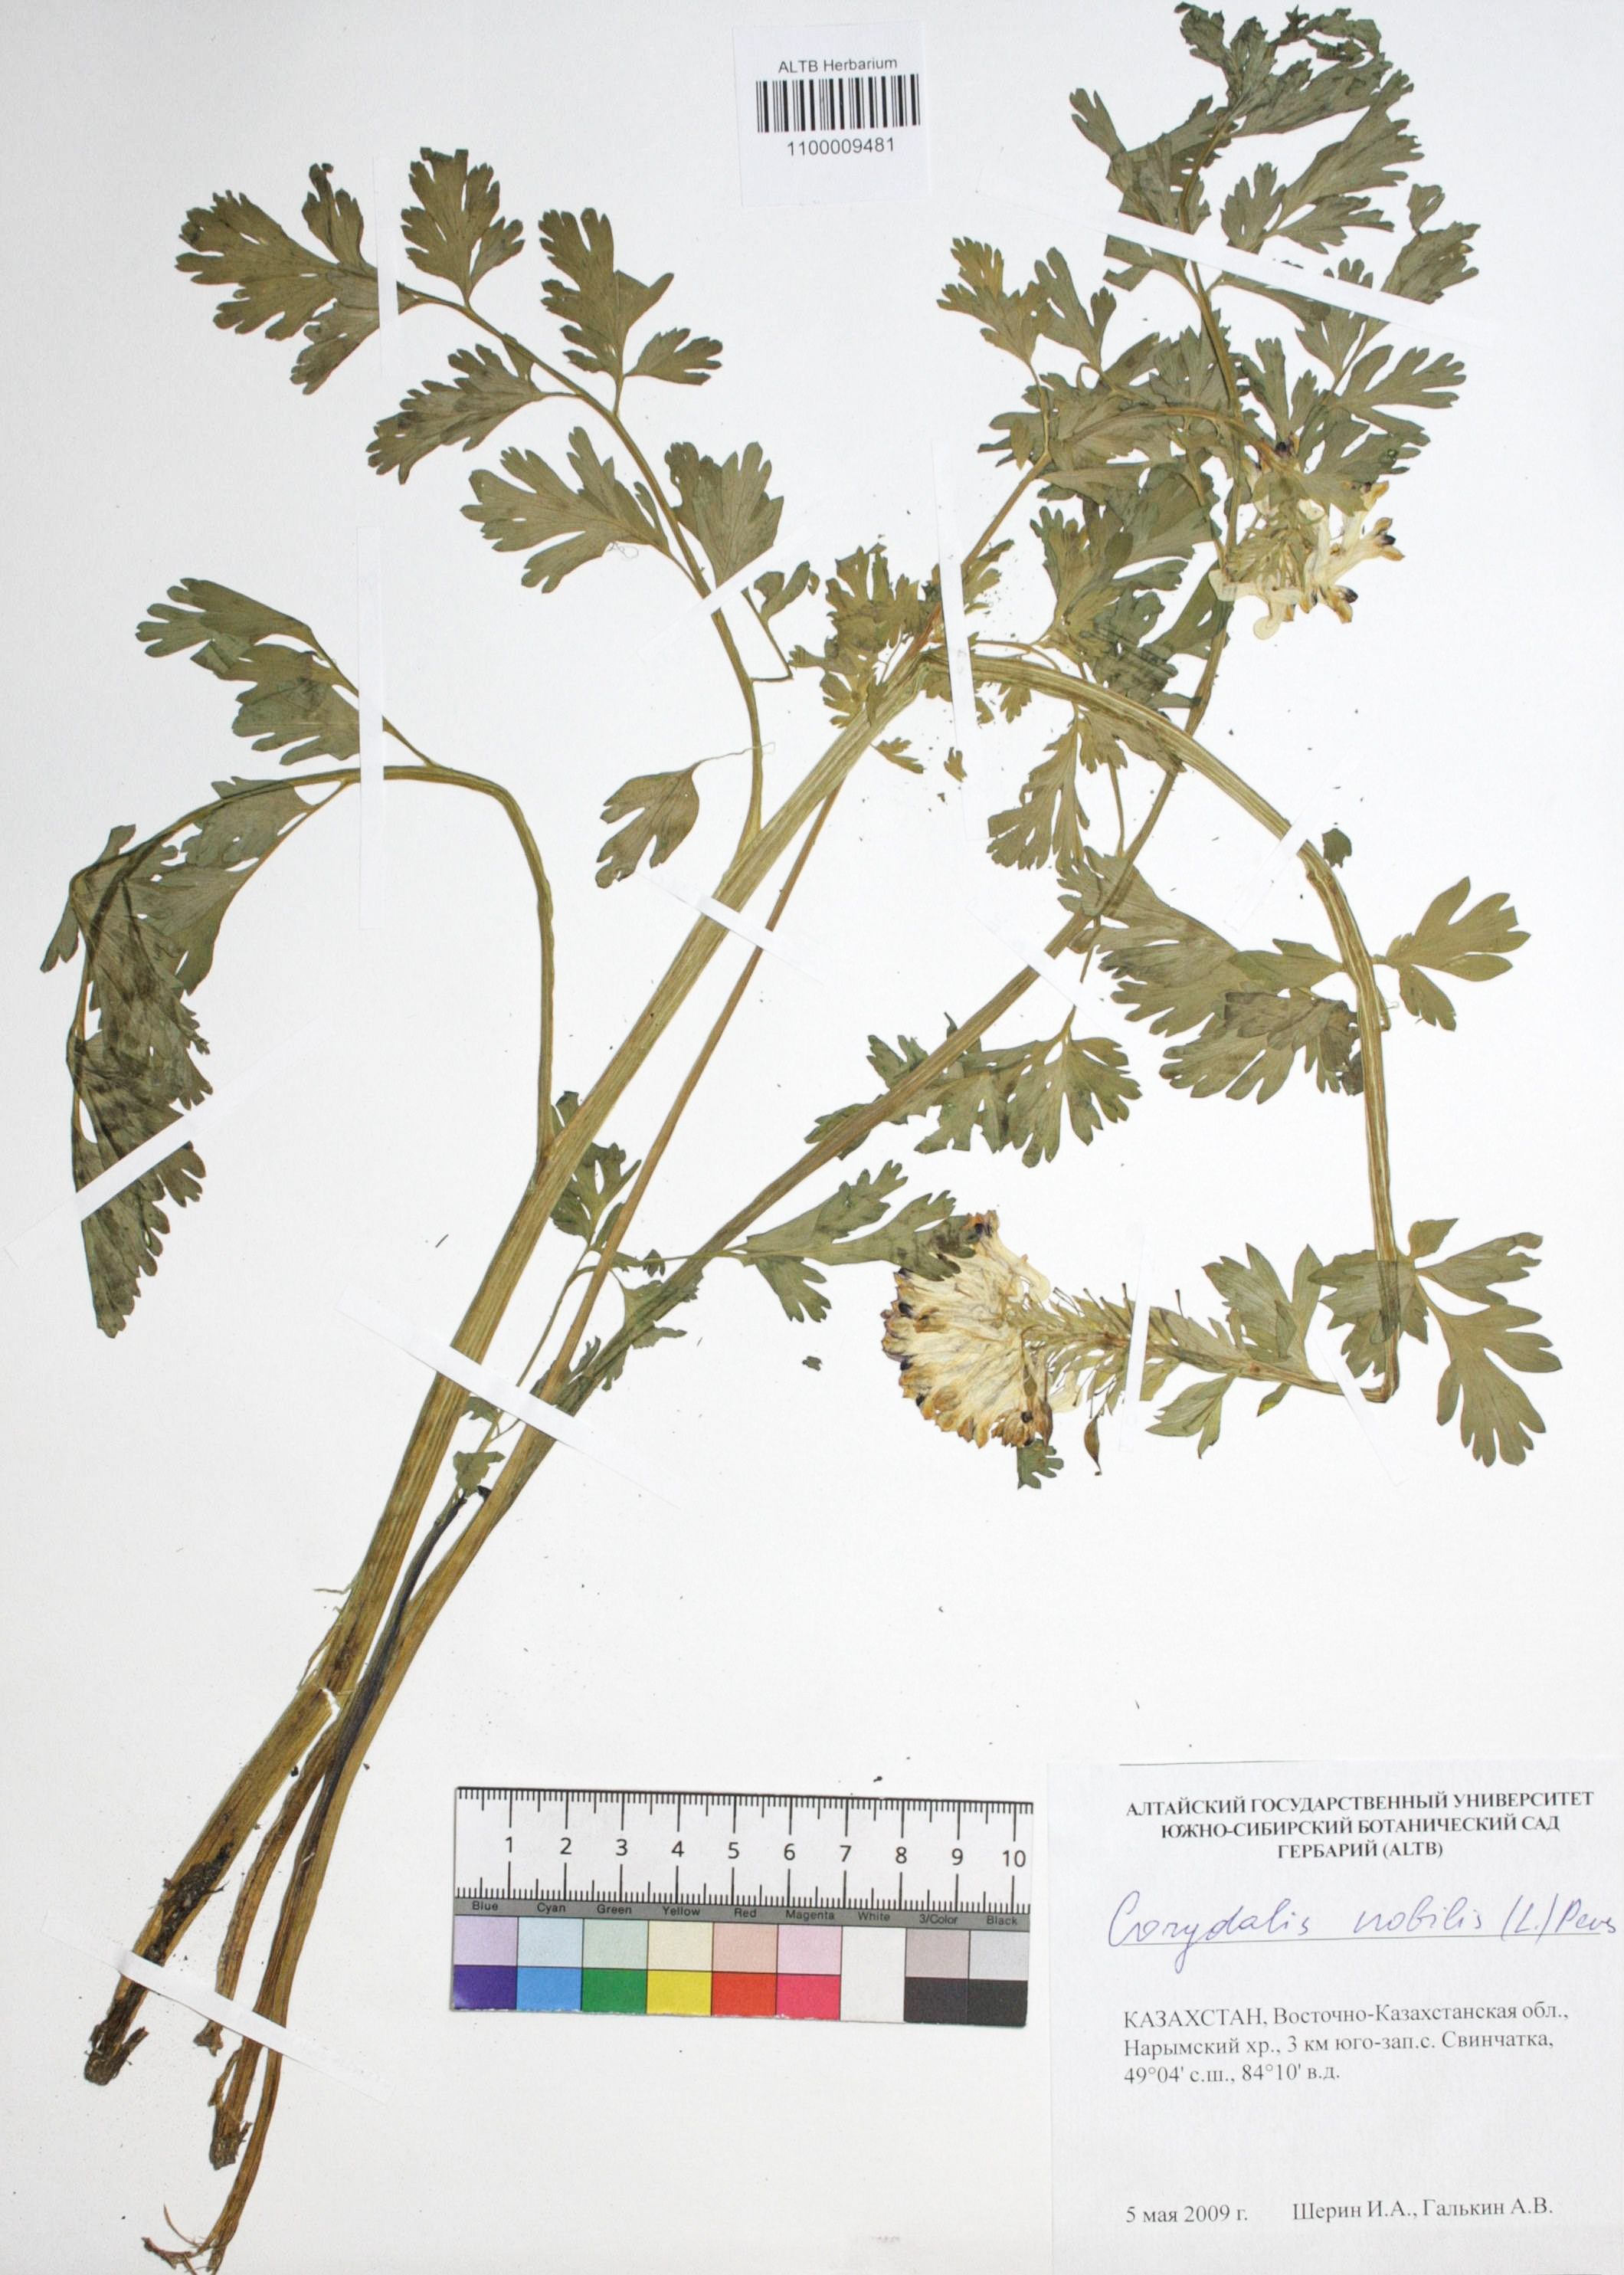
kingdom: Plantae
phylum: Tracheophyta
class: Magnoliopsida
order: Ranunculales
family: Papaveraceae
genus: Corydalis
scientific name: Corydalis nobilis
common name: Siberian corydalis
